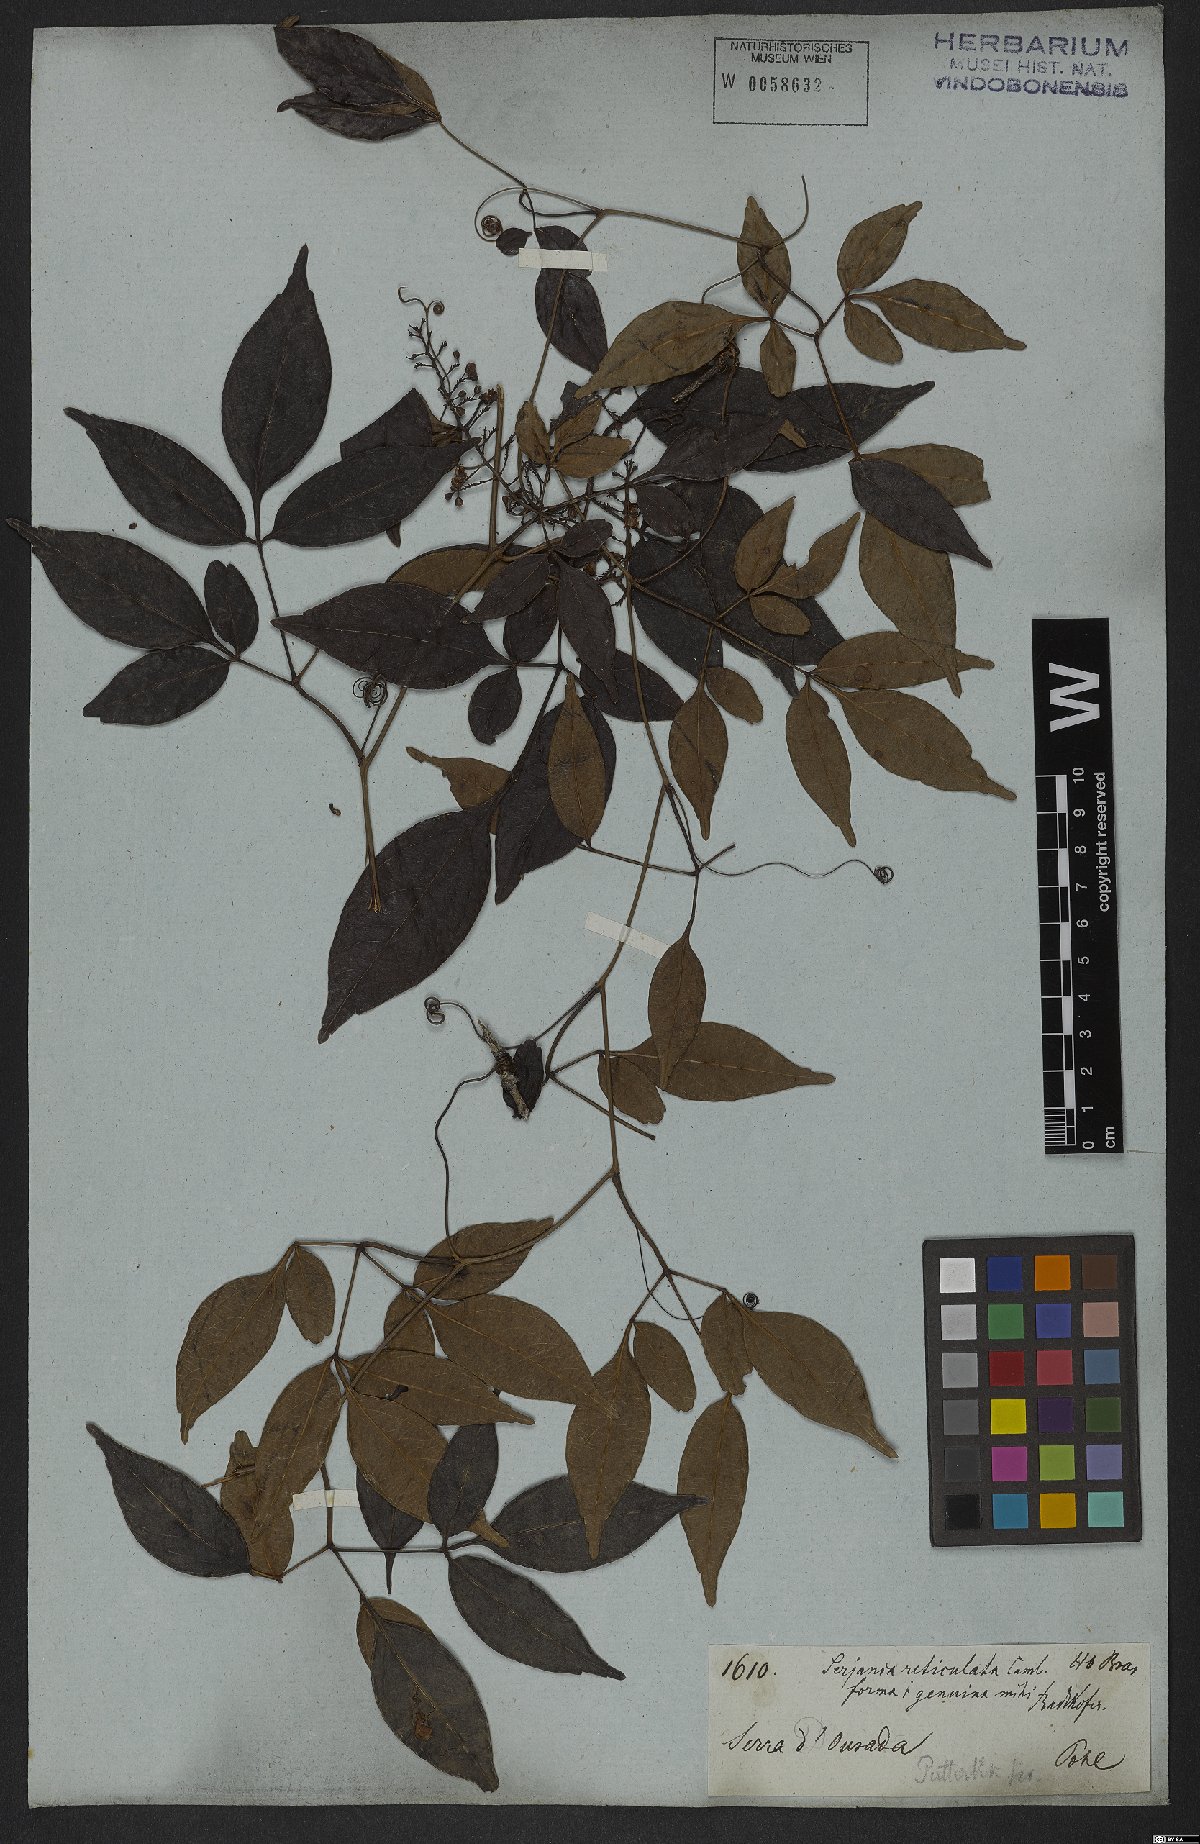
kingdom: Plantae
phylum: Tracheophyta
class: Magnoliopsida
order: Sapindales
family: Sapindaceae
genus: Serjania
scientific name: Serjania reticulata
